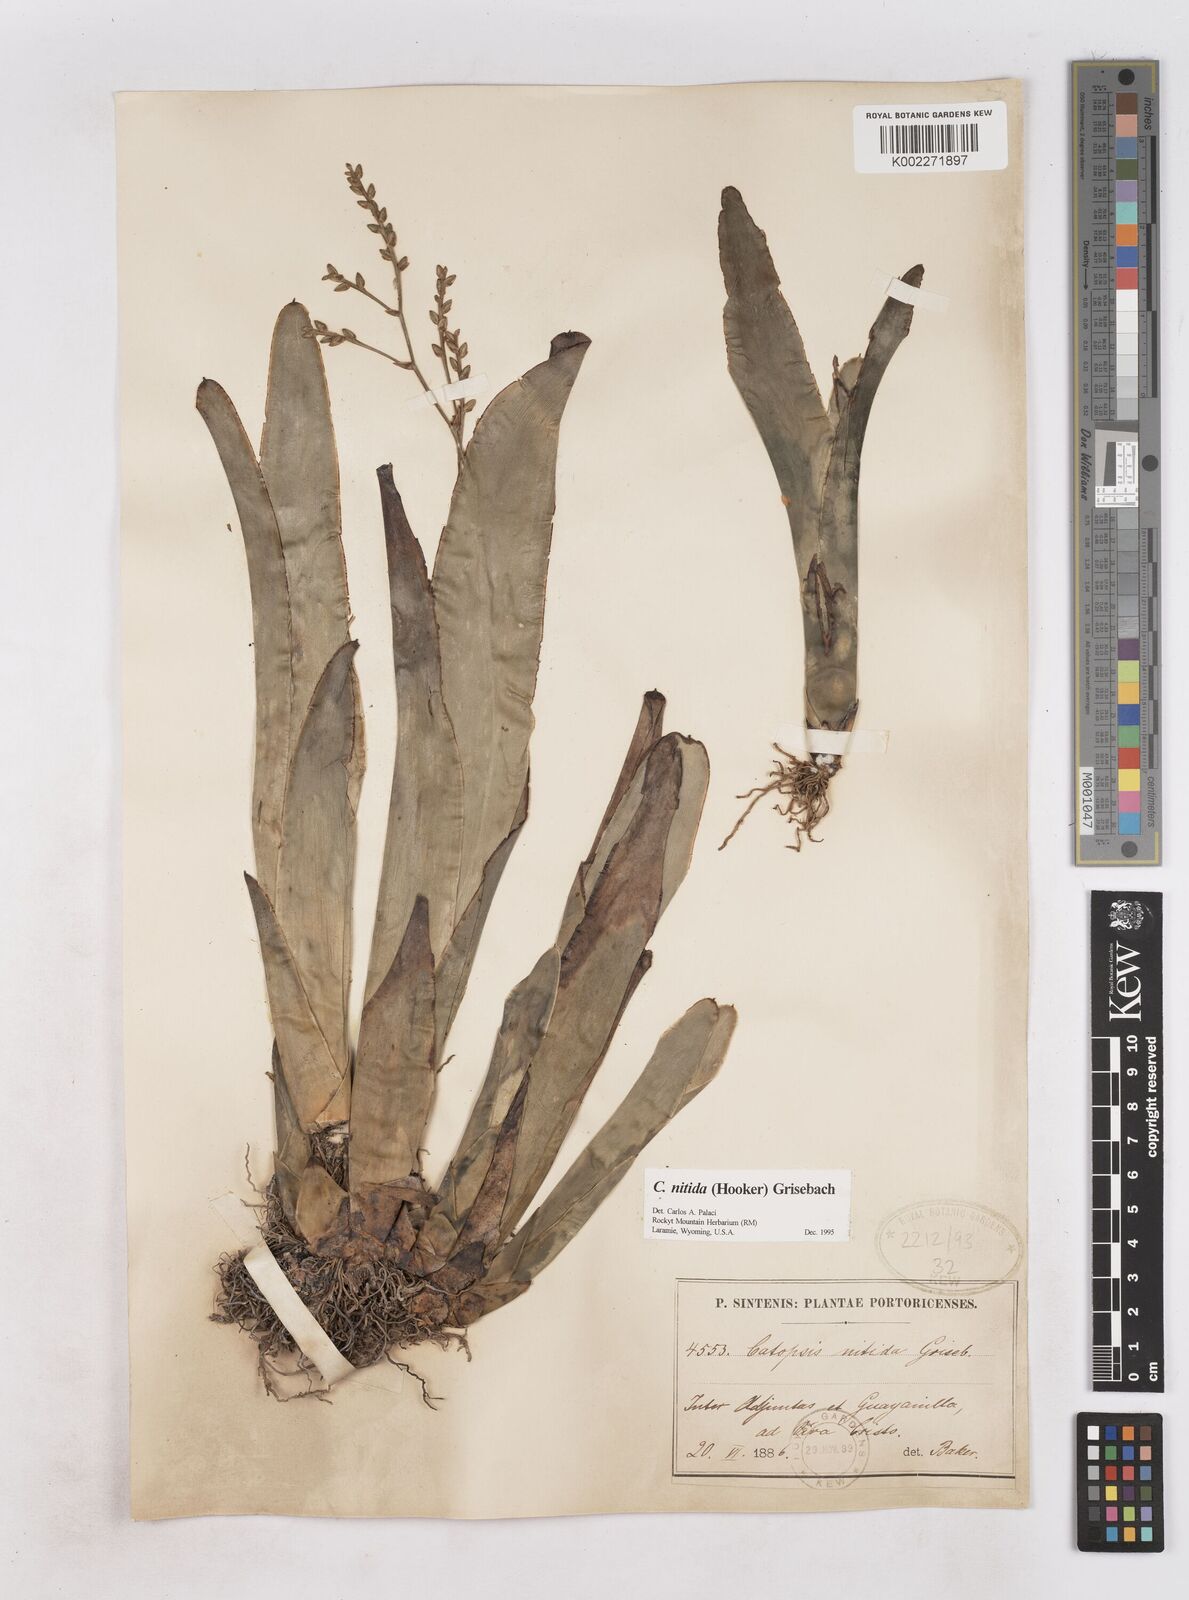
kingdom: Plantae
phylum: Tracheophyta
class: Liliopsida
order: Poales
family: Bromeliaceae
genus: Catopsis
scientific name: Catopsis nitida
